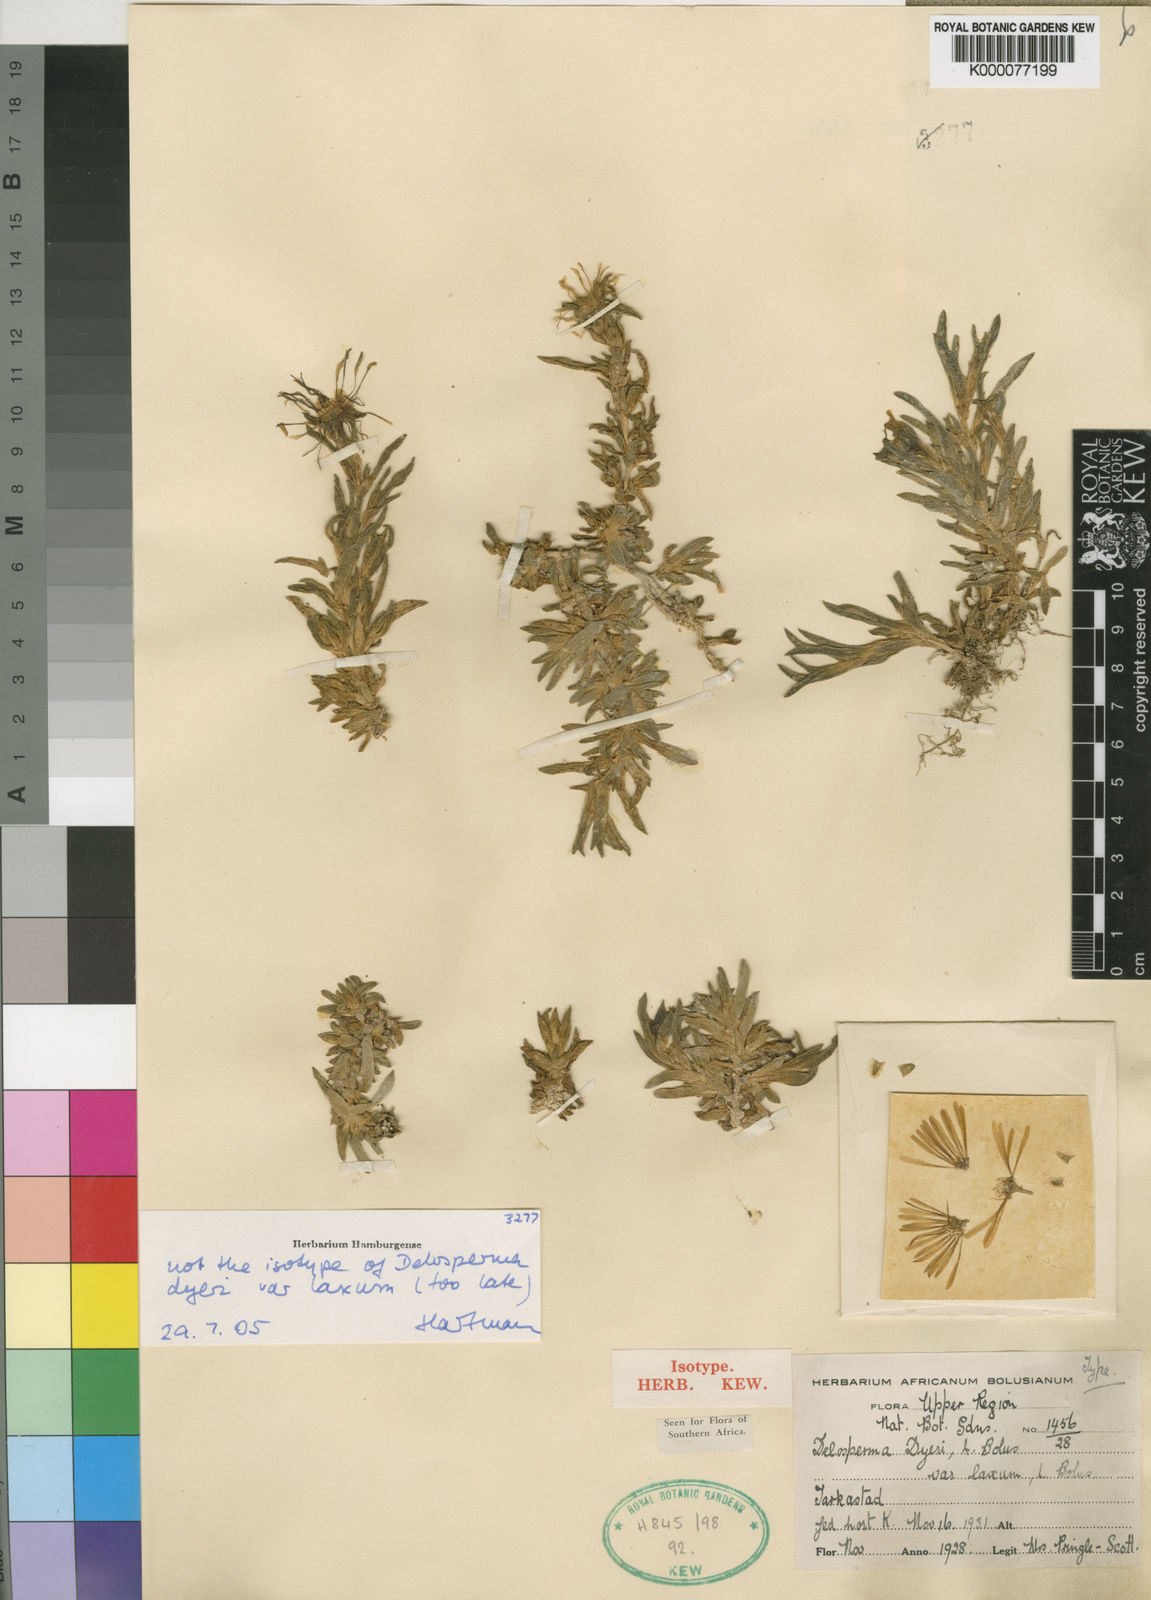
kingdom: Plantae
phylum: Tracheophyta
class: Magnoliopsida
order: Caryophyllales
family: Aizoaceae
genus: Delosperma
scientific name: Delosperma dyeri
